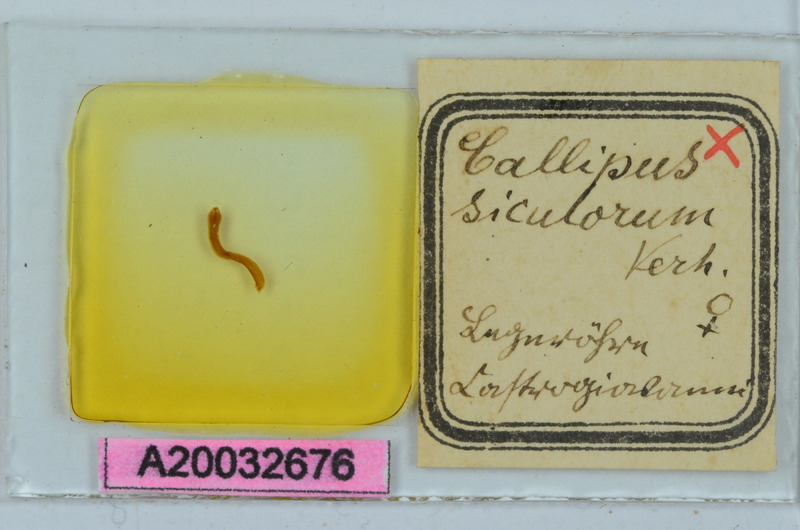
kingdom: Animalia
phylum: Arthropoda
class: Diplopoda
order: Callipodida
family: Callipodidae
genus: Callipus
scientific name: Callipus foetidissimus
